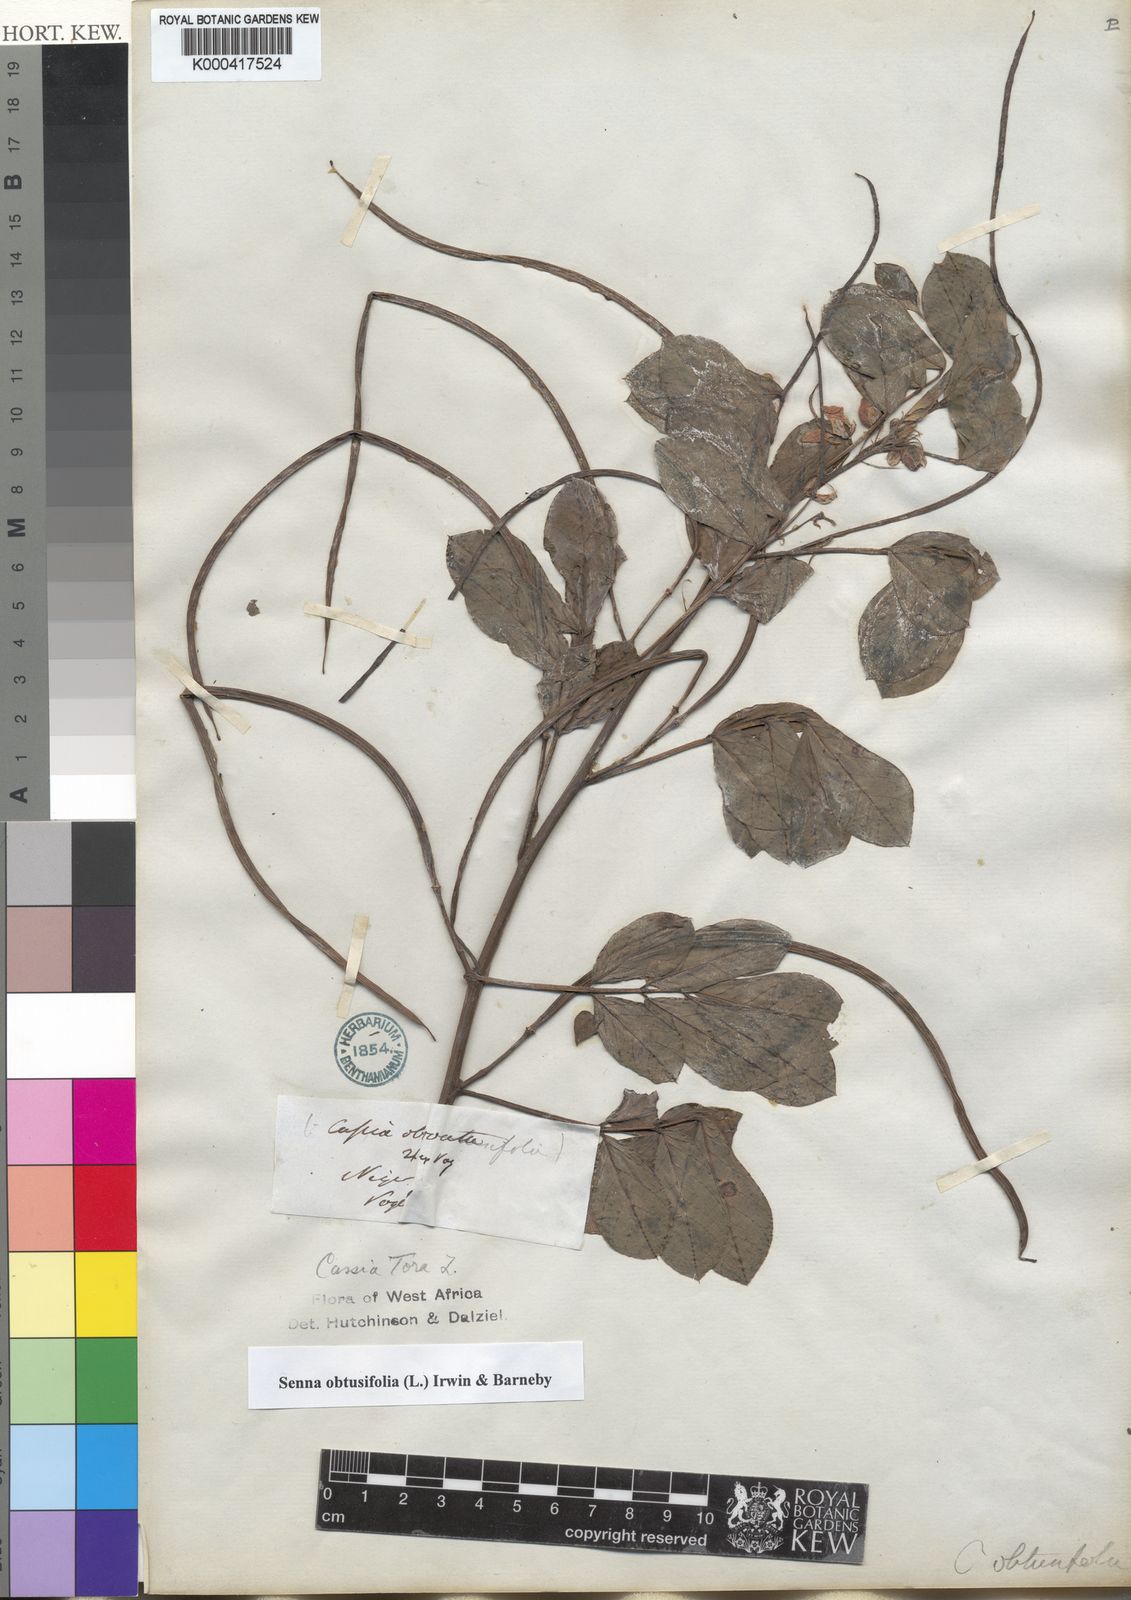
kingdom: Plantae
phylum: Tracheophyta
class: Magnoliopsida
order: Fabales
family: Fabaceae
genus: Senna
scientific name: Senna obtusifolia
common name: Java-bean
